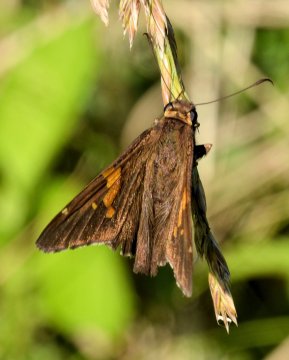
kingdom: Animalia
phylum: Arthropoda
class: Insecta
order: Lepidoptera
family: Hesperiidae
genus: Epargyreus
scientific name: Epargyreus clarus
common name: Silver-spotted Skipper
